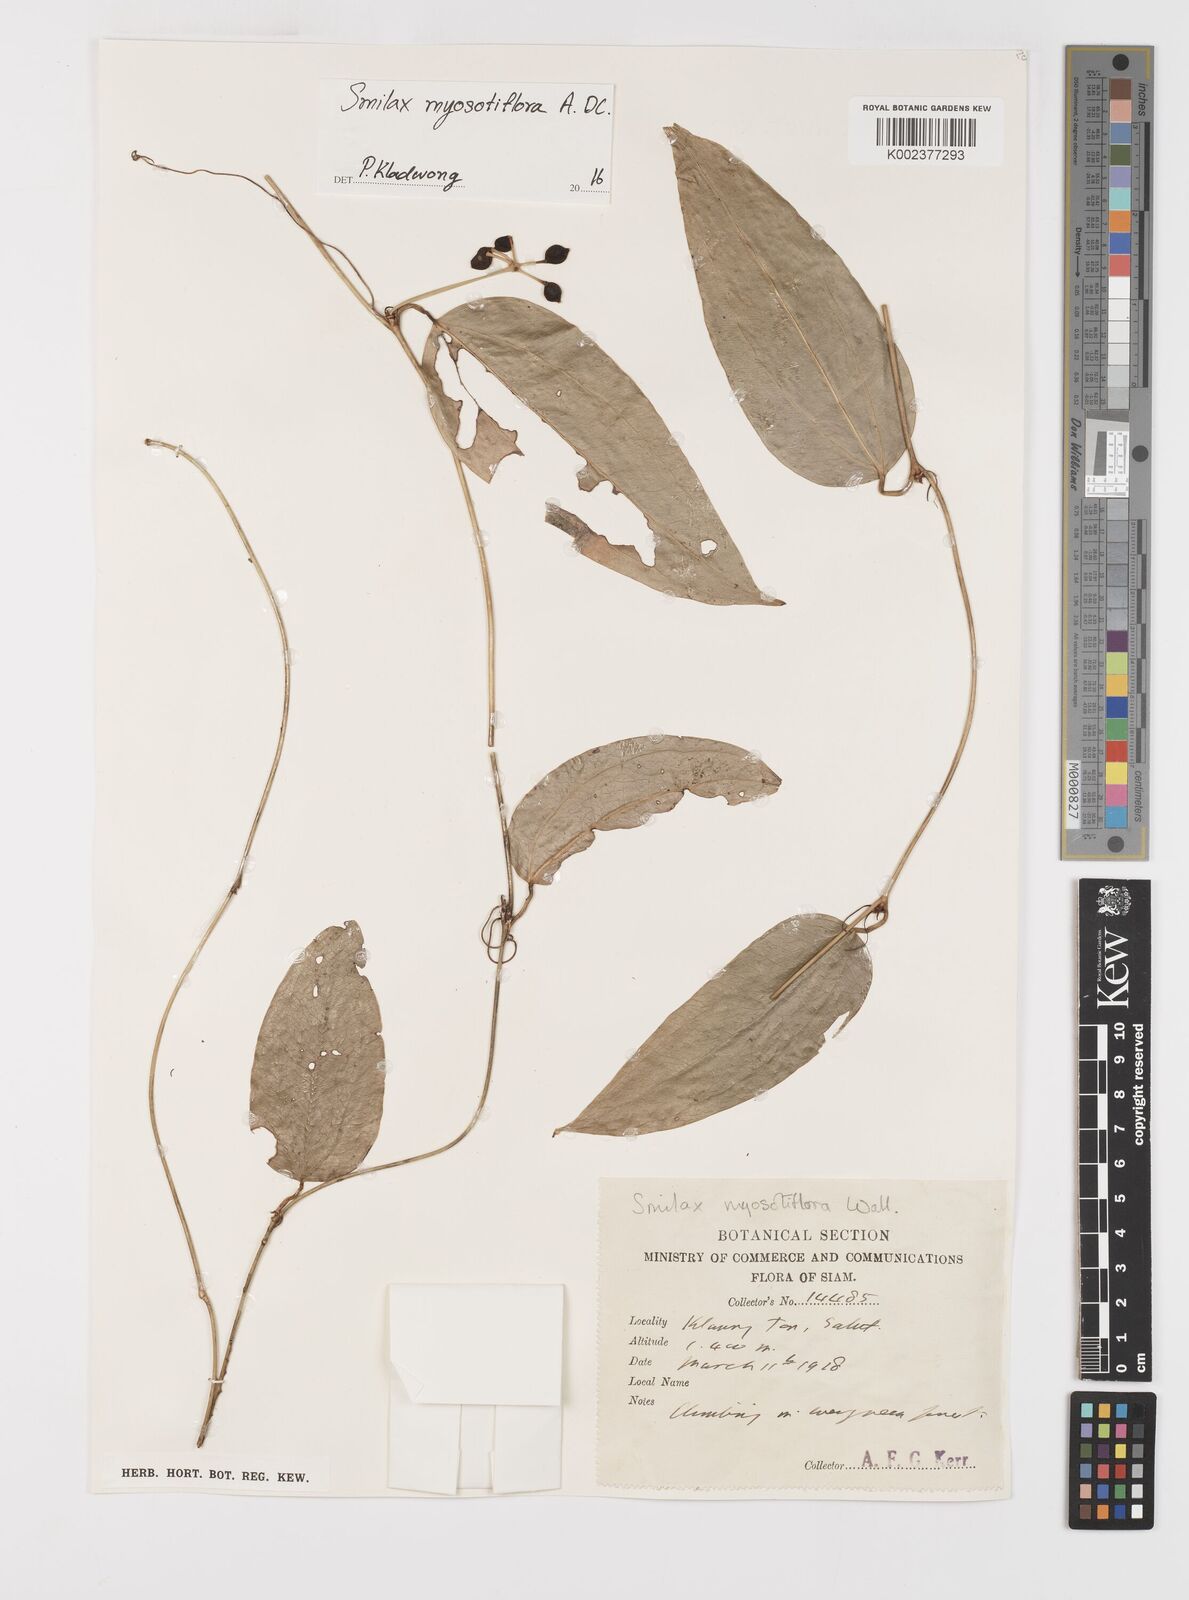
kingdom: Plantae
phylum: Tracheophyta
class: Liliopsida
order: Liliales
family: Smilacaceae
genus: Smilax
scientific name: Smilax myosotiflora
